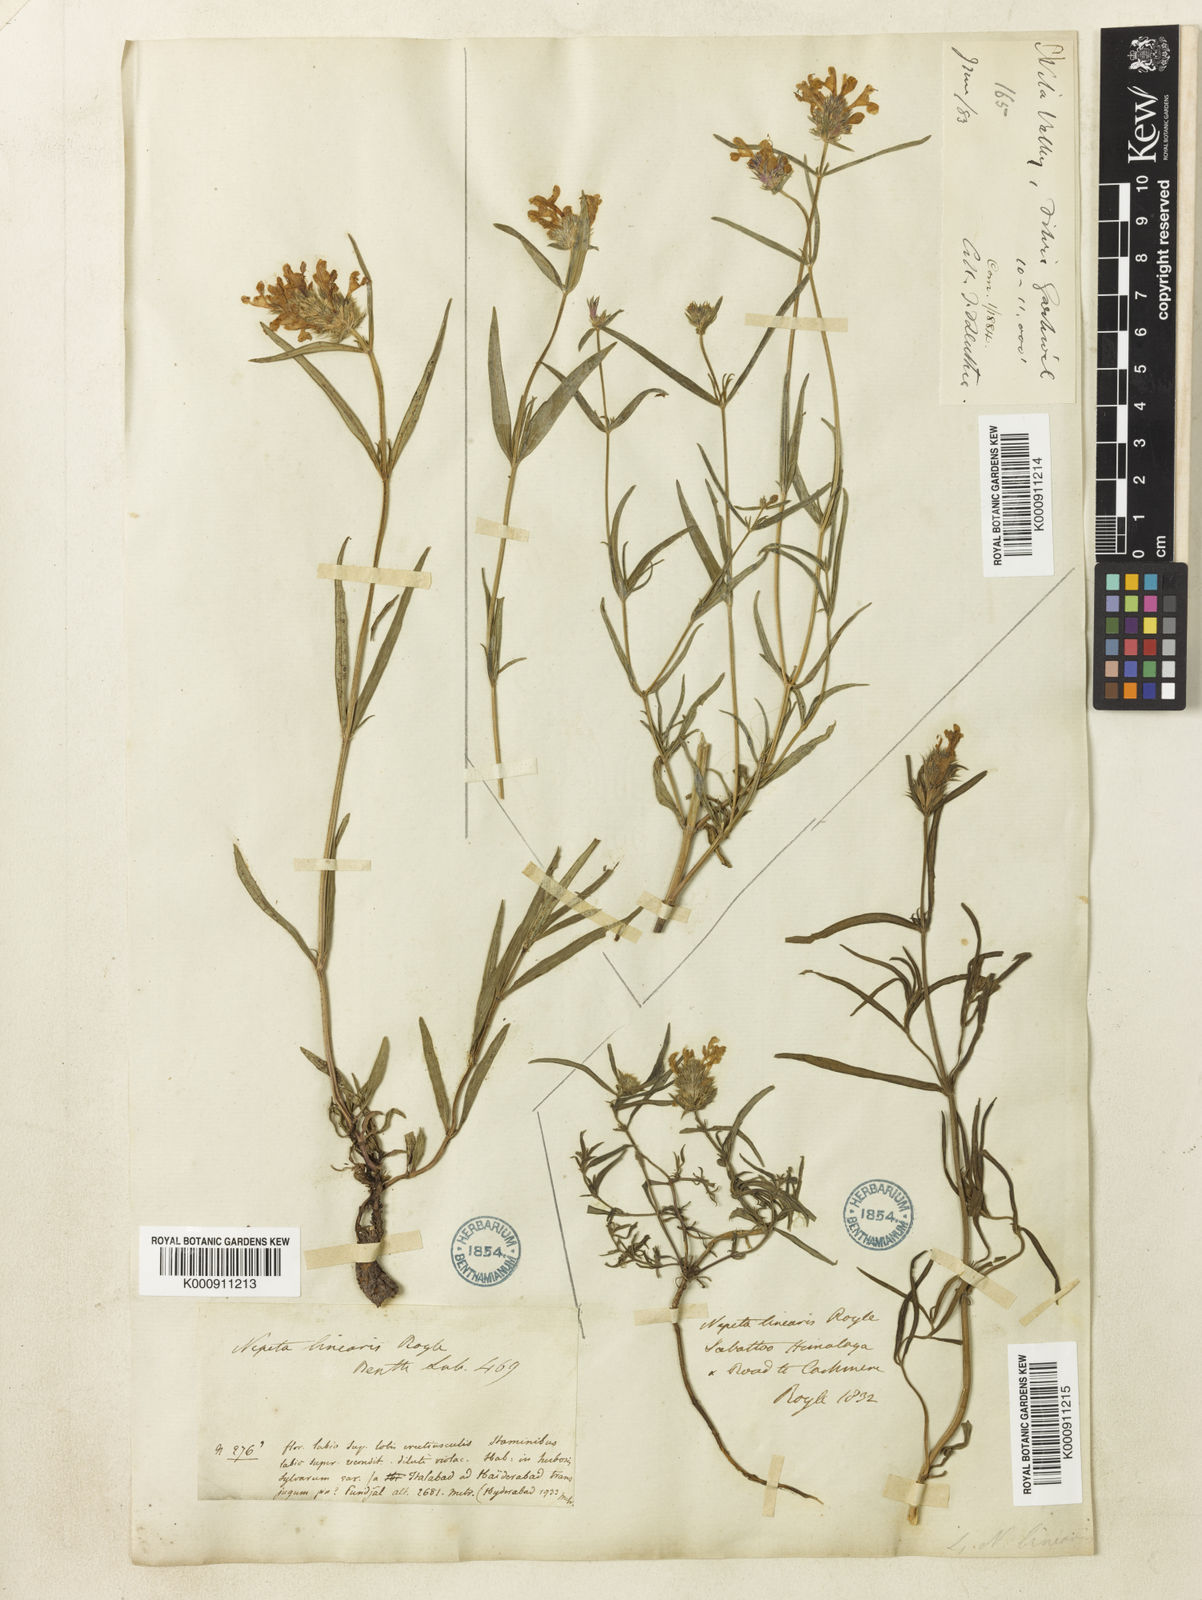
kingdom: Plantae
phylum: Tracheophyta
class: Magnoliopsida
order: Lamiales
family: Lamiaceae
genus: Nepeta
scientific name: Nepeta linearis
